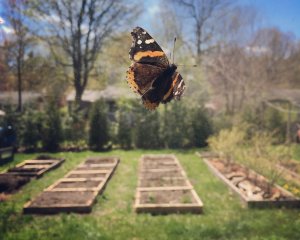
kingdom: Animalia
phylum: Arthropoda
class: Insecta
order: Lepidoptera
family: Nymphalidae
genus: Vanessa
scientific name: Vanessa atalanta
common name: Red Admiral
